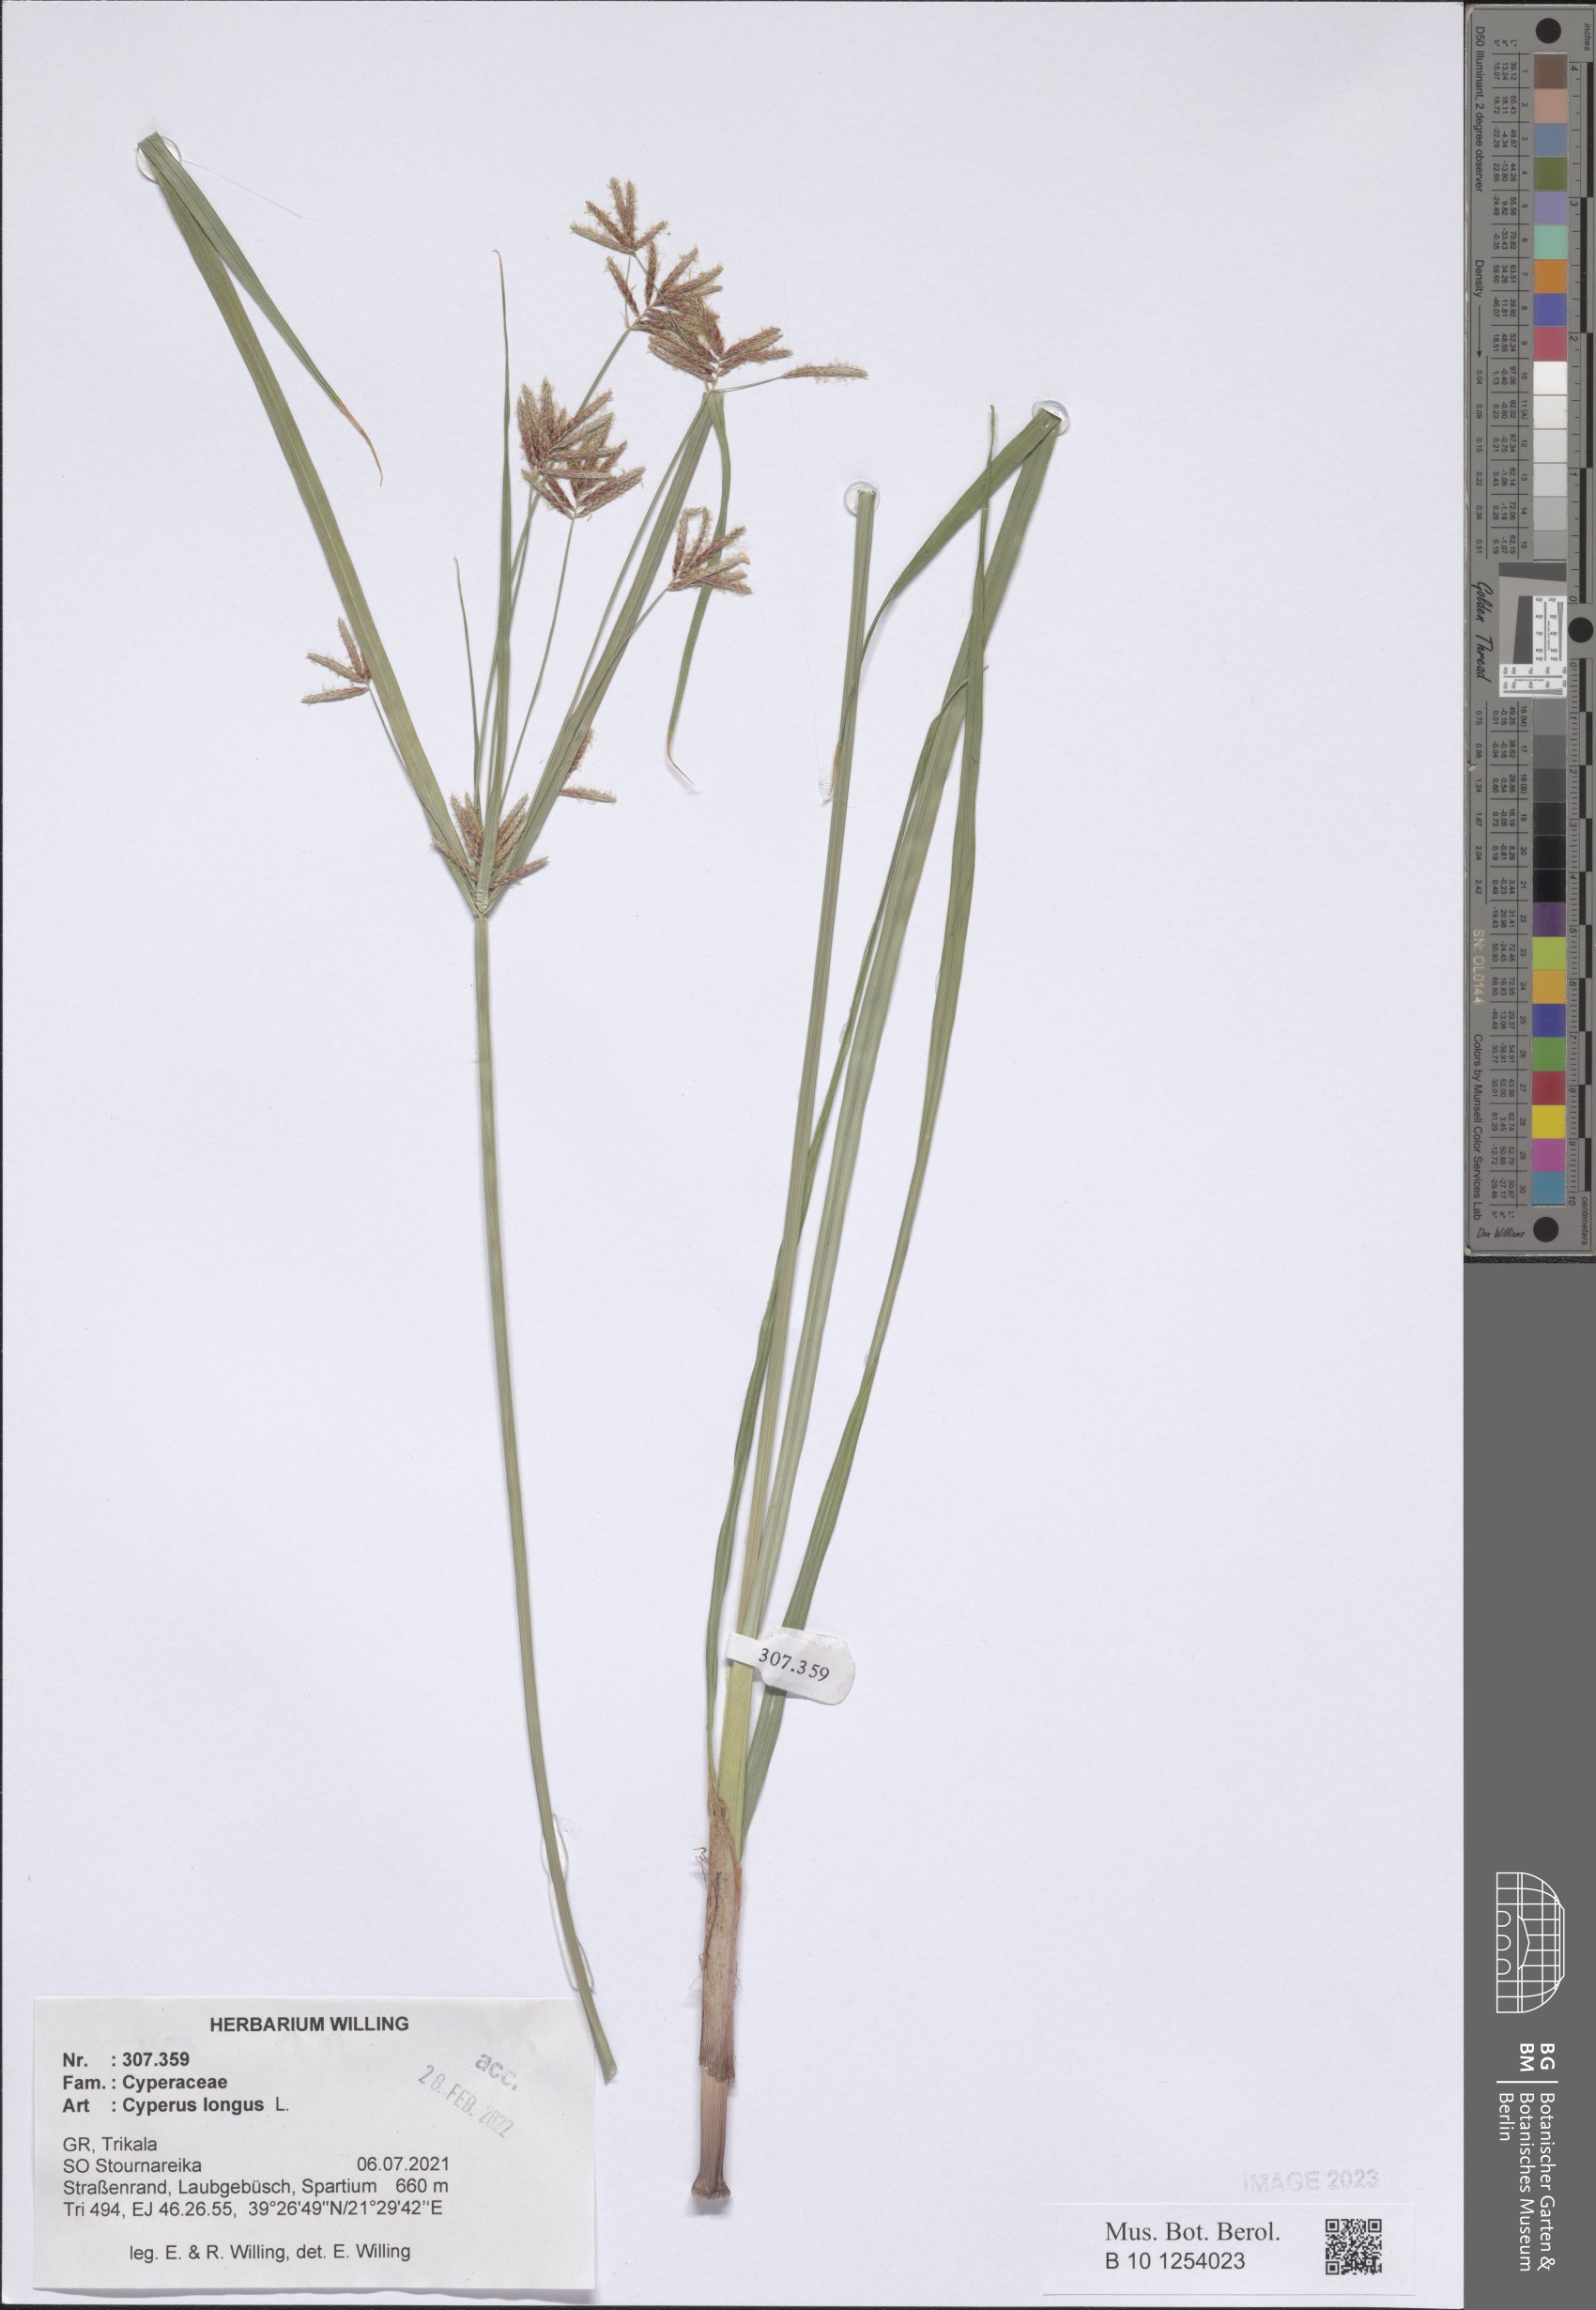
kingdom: Plantae
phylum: Tracheophyta
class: Liliopsida
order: Poales
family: Cyperaceae
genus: Cyperus
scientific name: Cyperus longus
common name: Galingale
